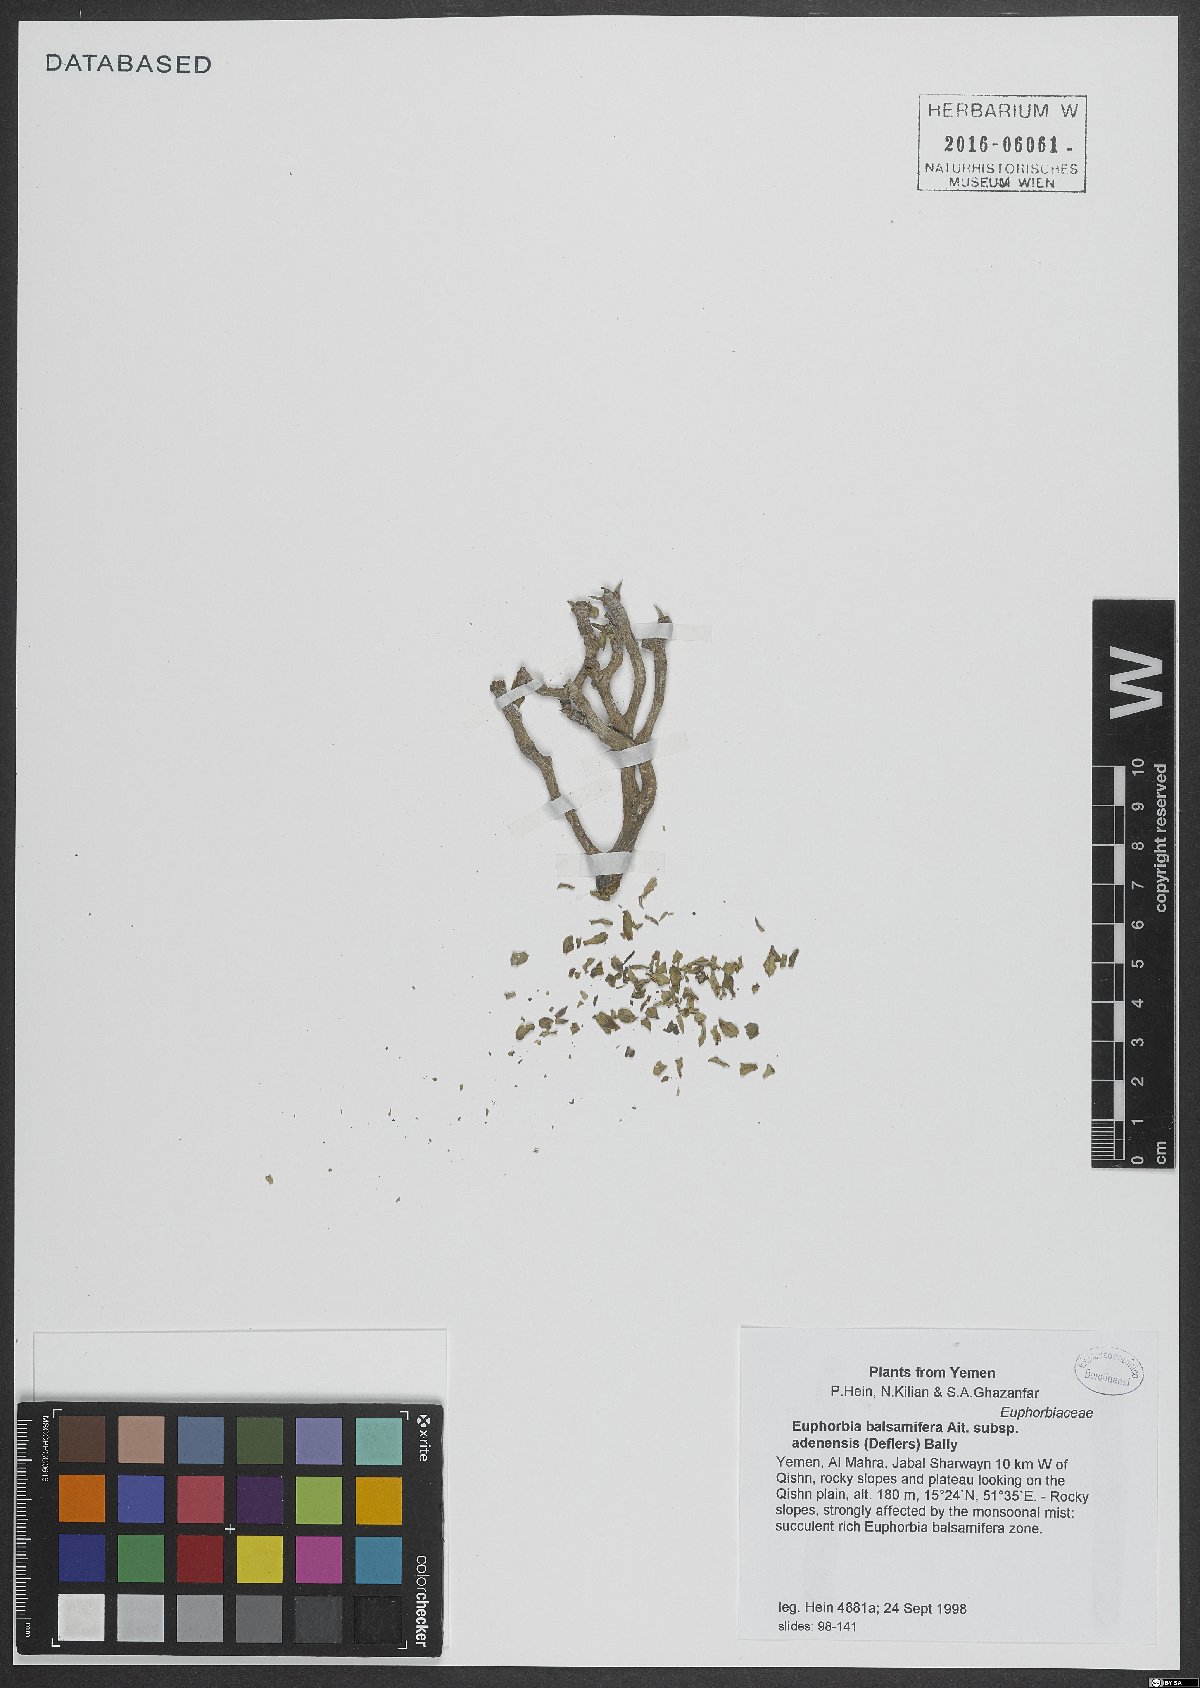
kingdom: Plantae
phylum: Tracheophyta
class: Magnoliopsida
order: Malpighiales
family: Euphorbiaceae
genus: Euphorbia
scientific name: Euphorbia adenensis
